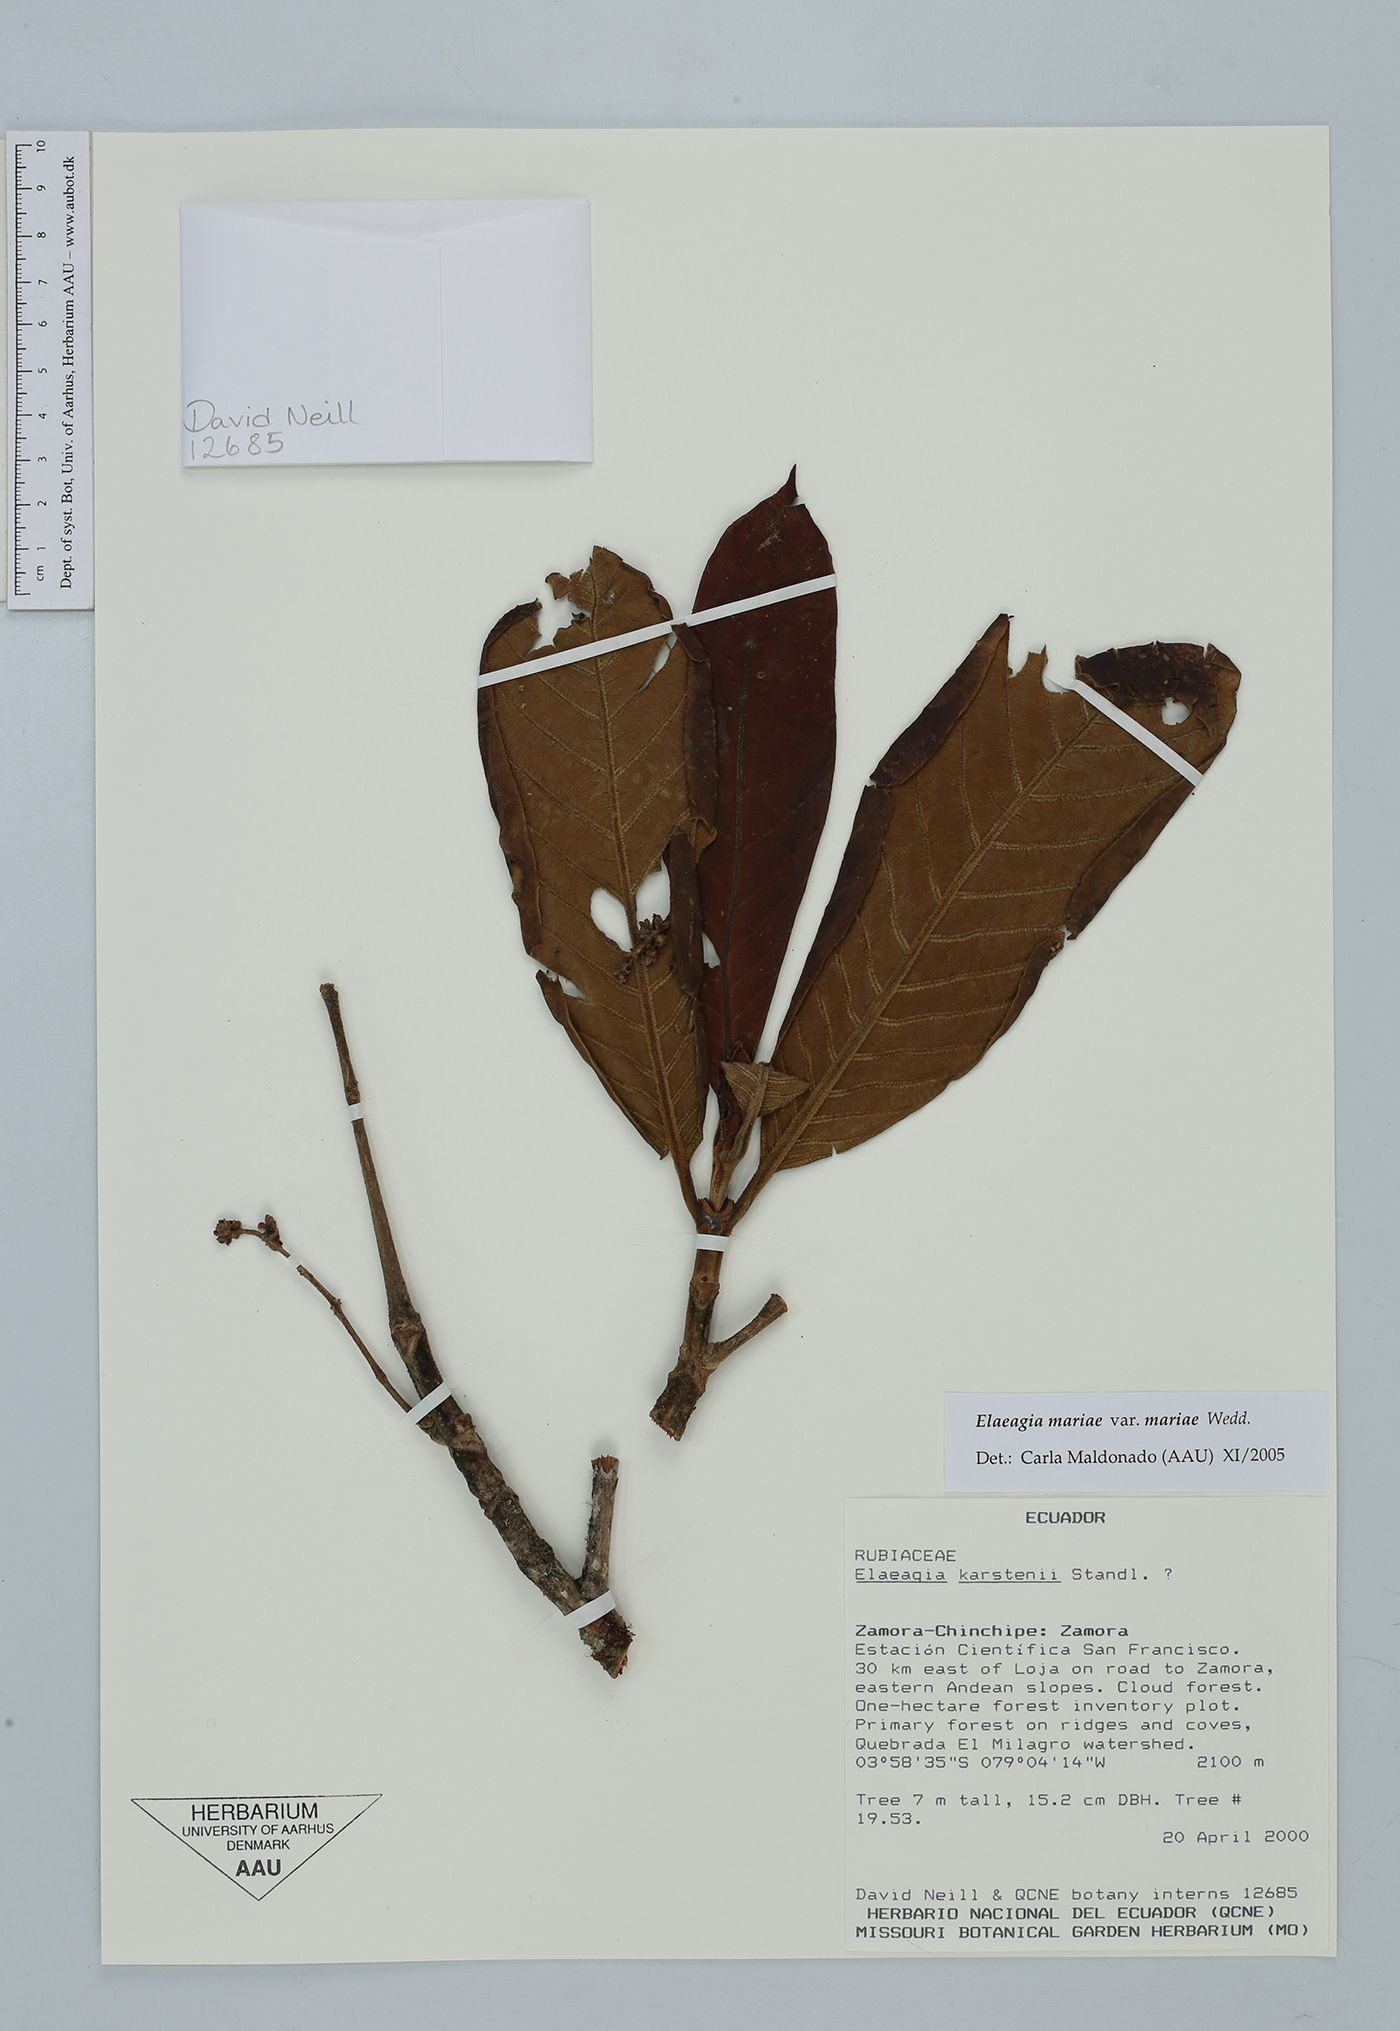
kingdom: Plantae
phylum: Tracheophyta
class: Magnoliopsida
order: Gentianales
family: Rubiaceae
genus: Elaeagia
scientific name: Elaeagia mariae
